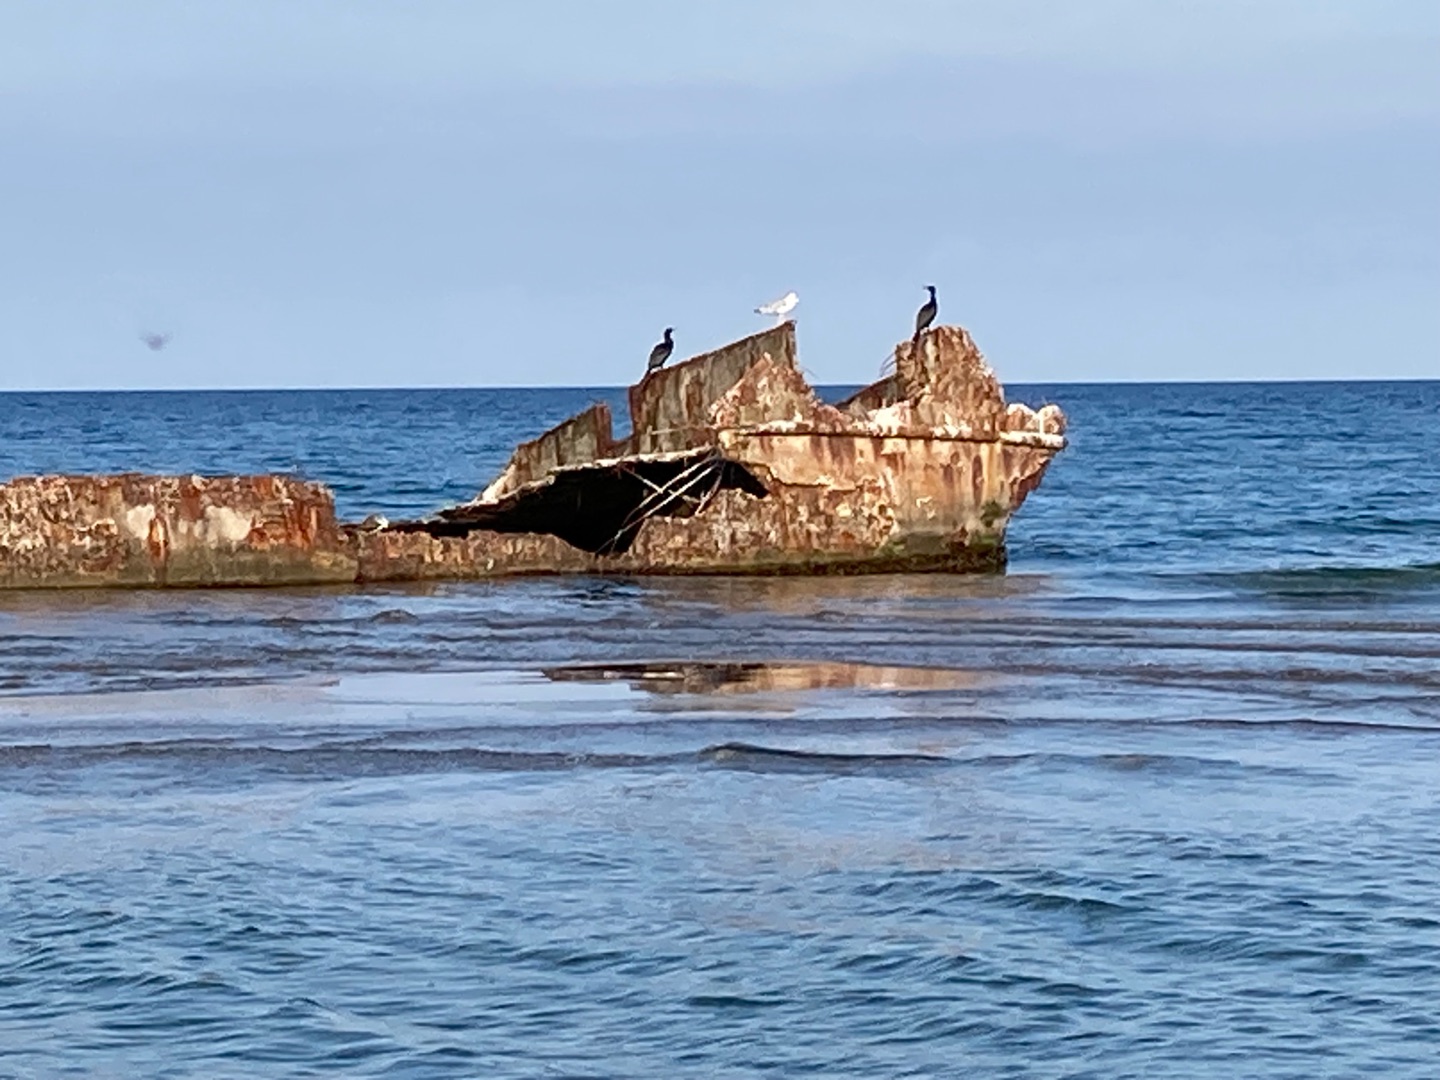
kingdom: Animalia
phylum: Chordata
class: Aves
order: Suliformes
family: Phalacrocoracidae
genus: Phalacrocorax
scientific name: Phalacrocorax carbo
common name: Skarv
